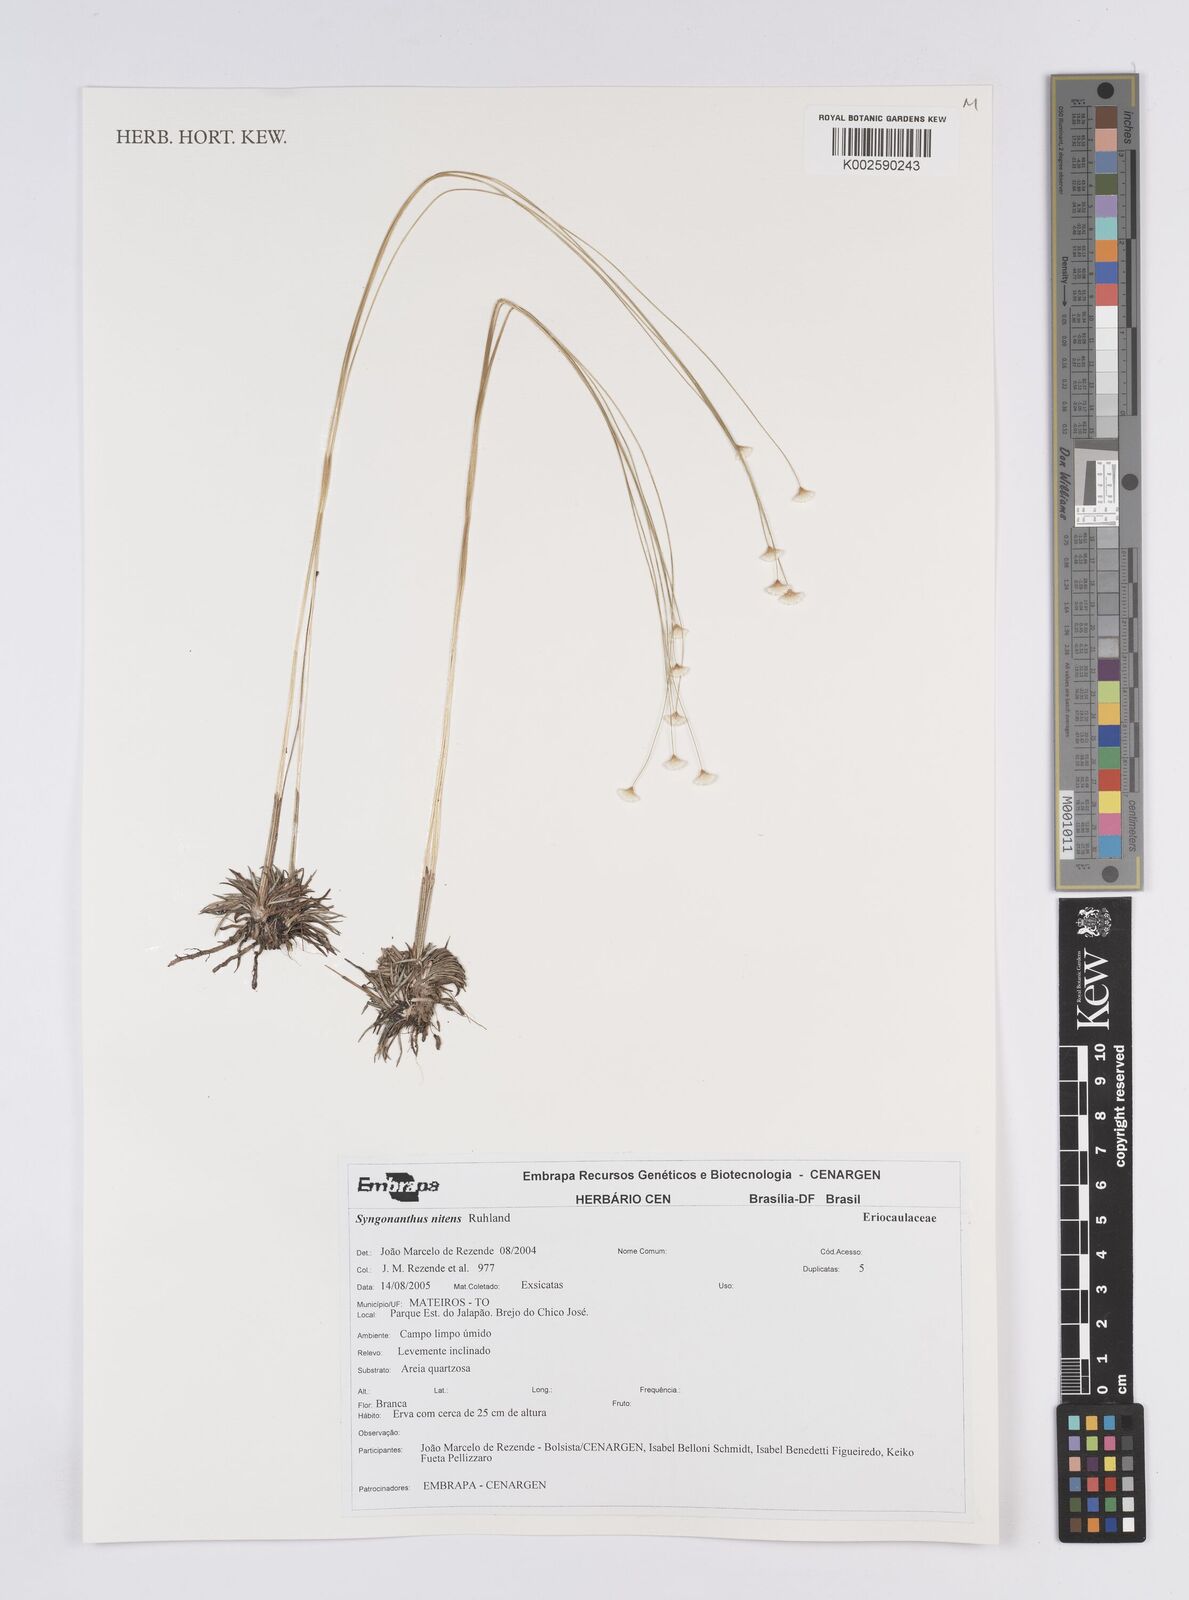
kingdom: Plantae
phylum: Tracheophyta
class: Liliopsida
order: Poales
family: Eriocaulaceae
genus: Syngonanthus
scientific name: Syngonanthus nitens
